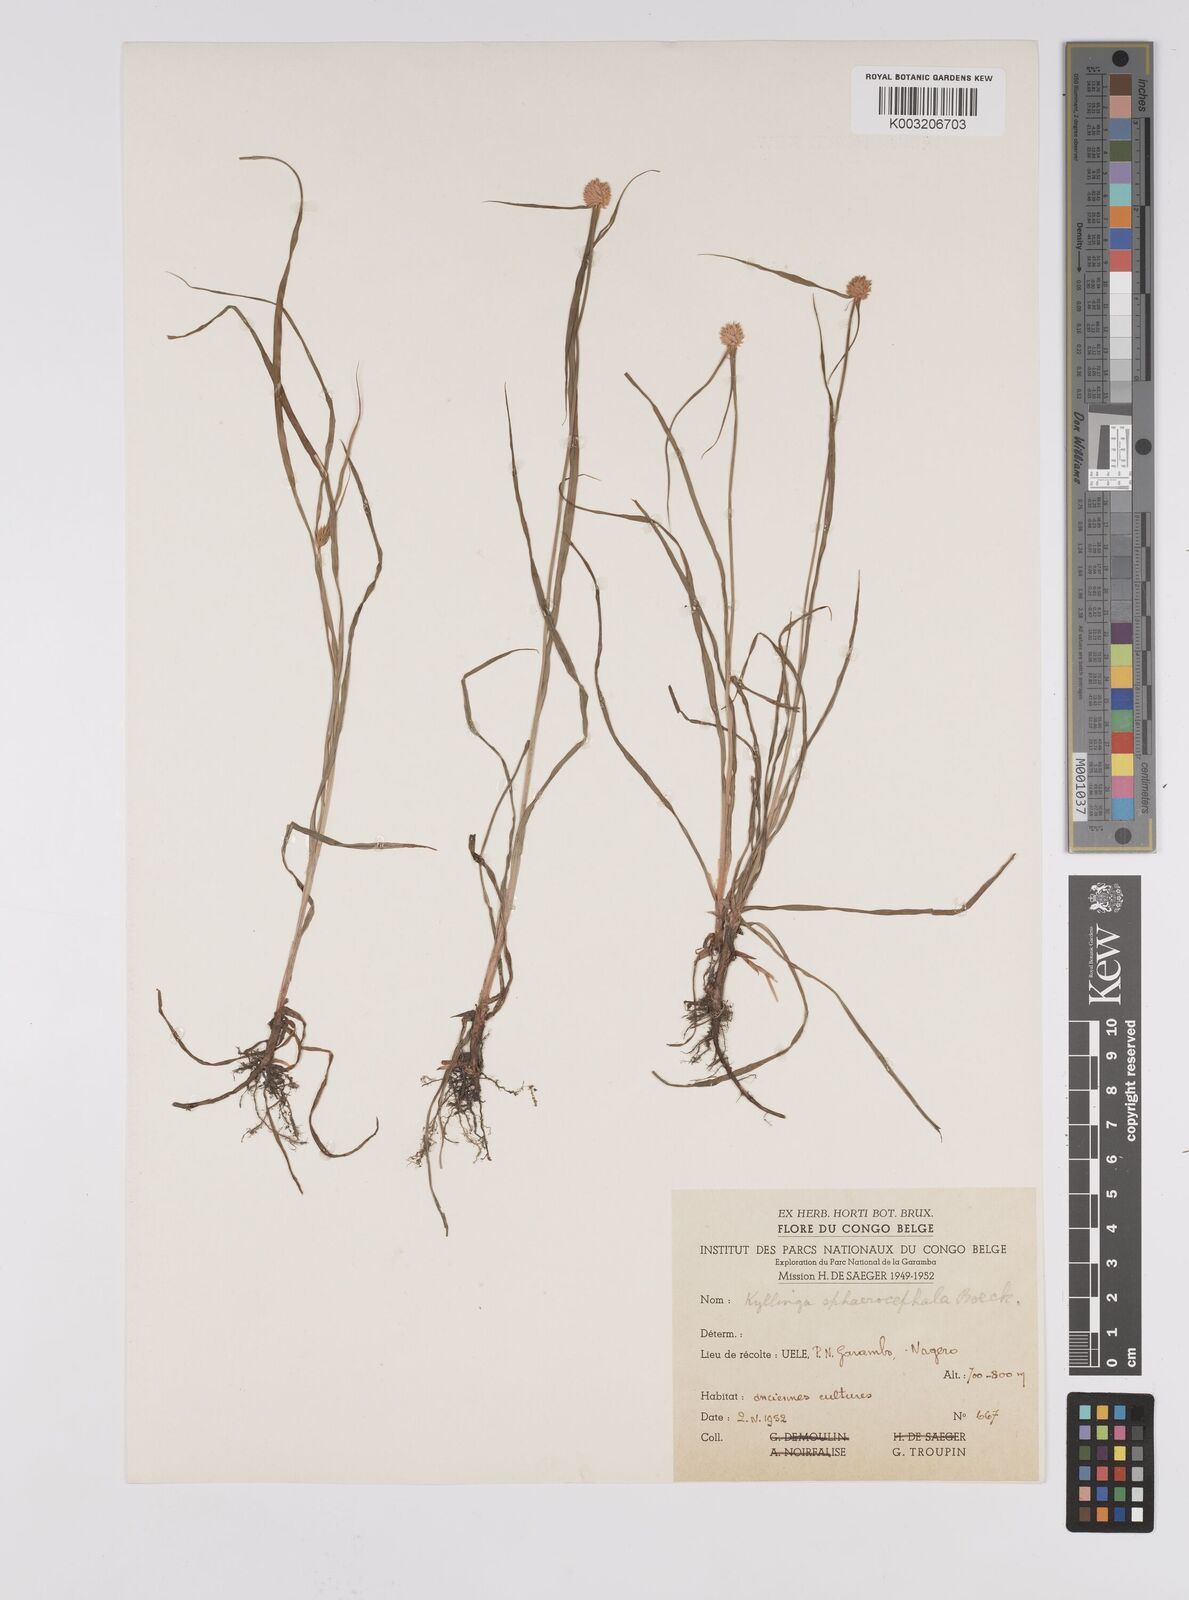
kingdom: Plantae
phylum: Tracheophyta
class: Liliopsida
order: Poales
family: Cyperaceae
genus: Cyperus
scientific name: Cyperus sphaerolepis
